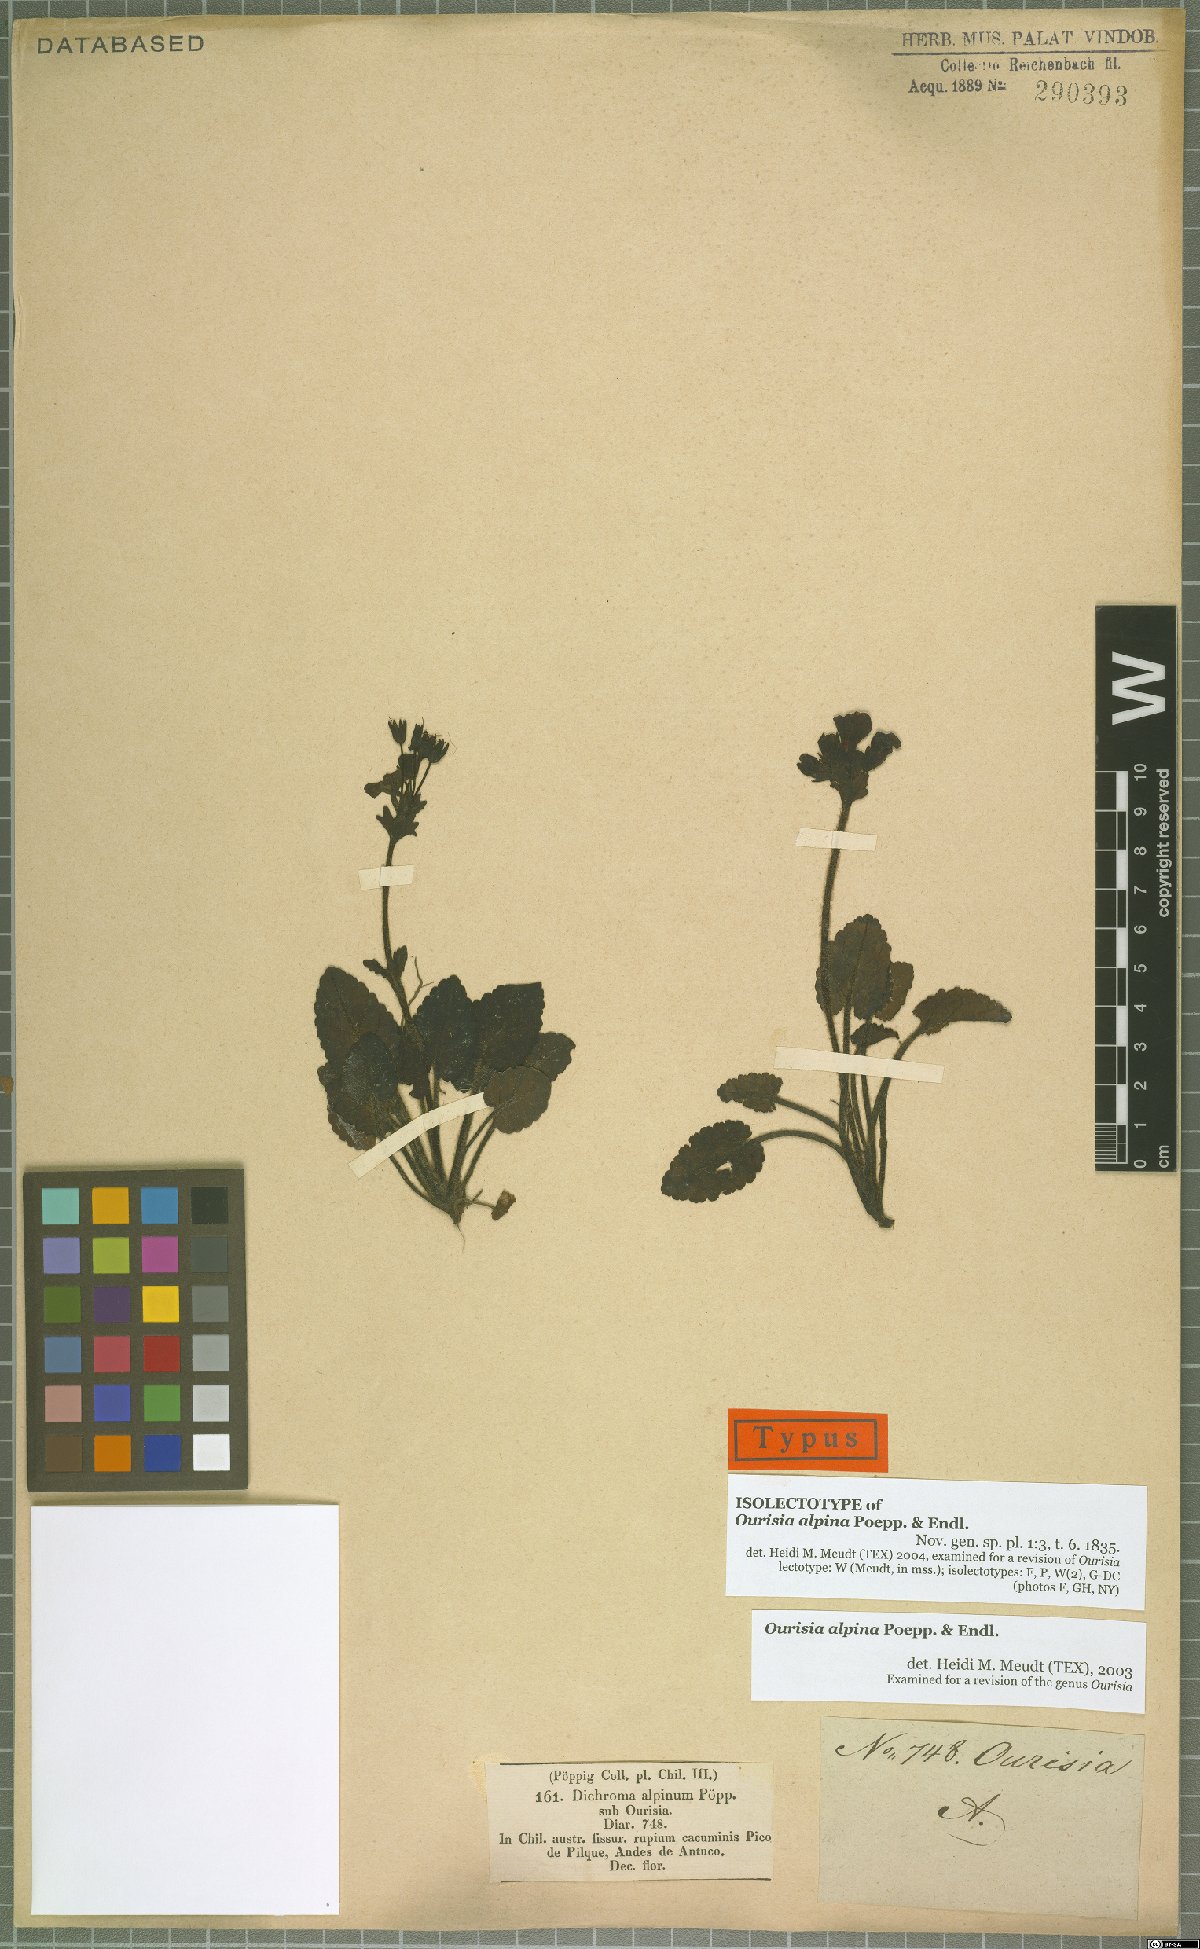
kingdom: Plantae
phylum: Tracheophyta
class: Magnoliopsida
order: Lamiales
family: Plantaginaceae
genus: Ourisia
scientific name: Ourisia alpina
